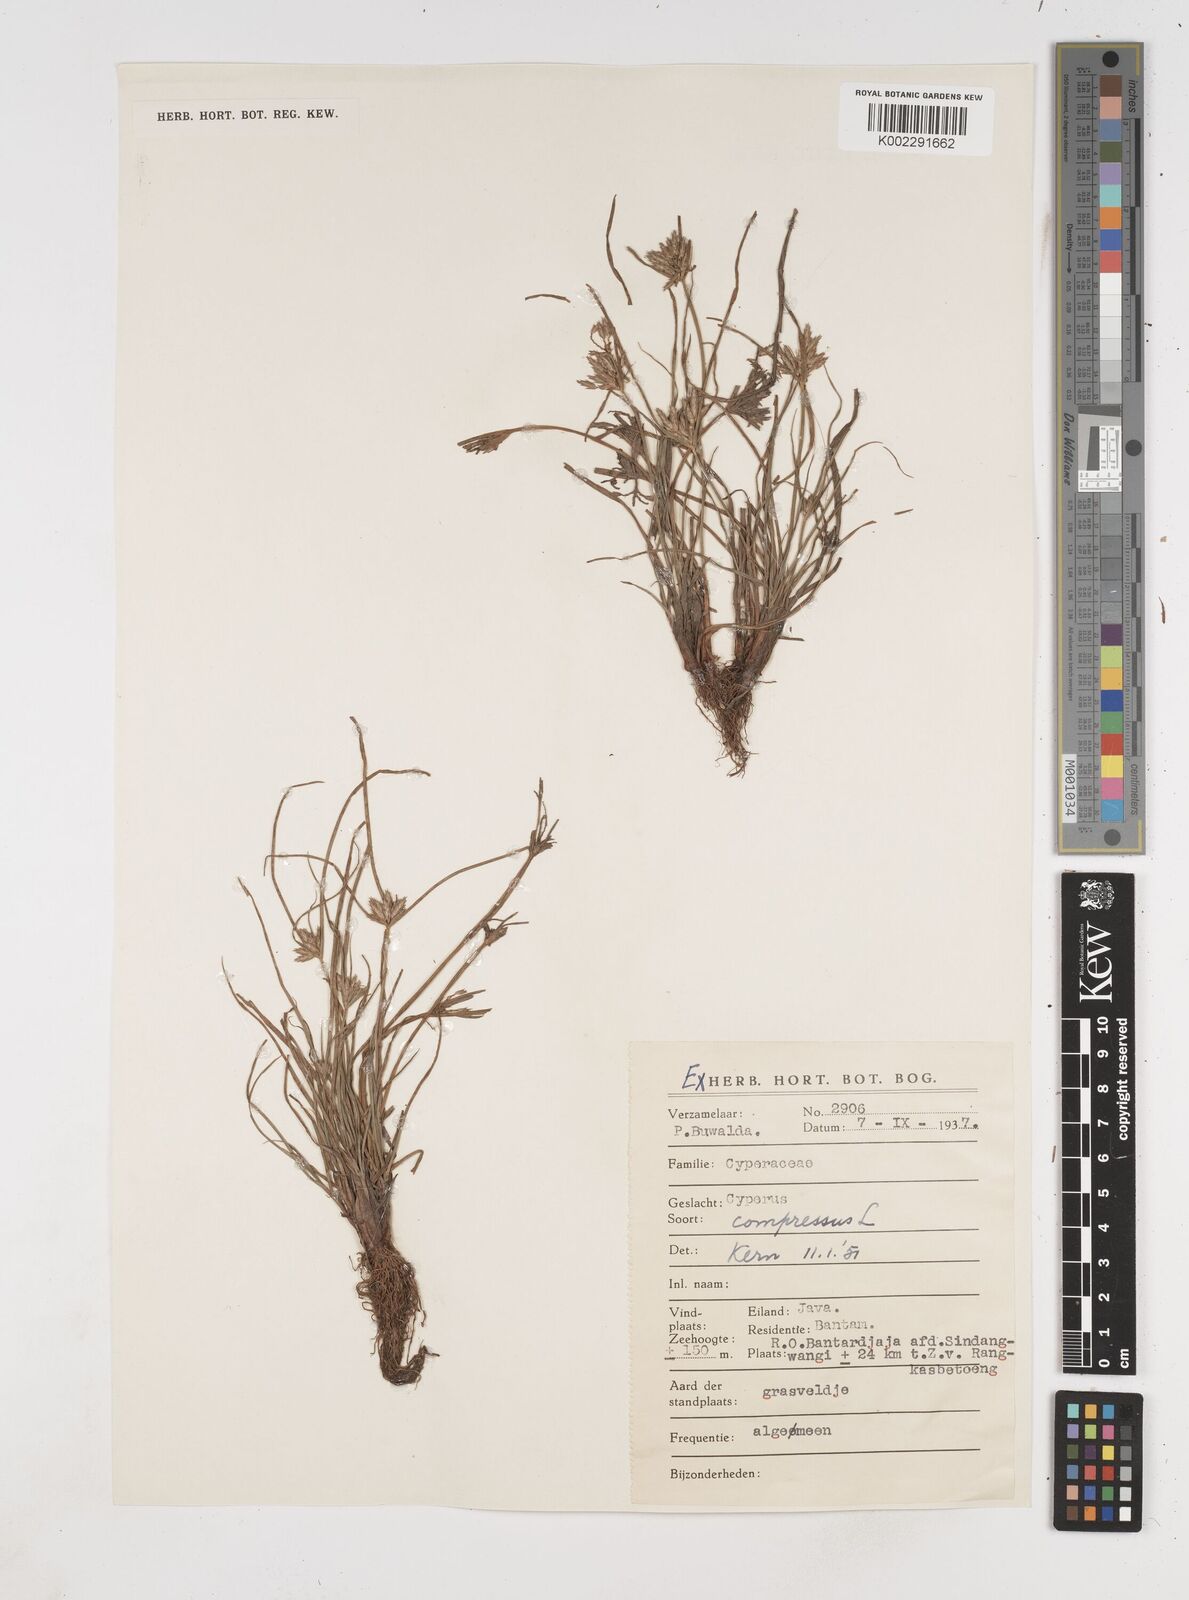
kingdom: Plantae
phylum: Tracheophyta
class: Liliopsida
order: Poales
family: Cyperaceae
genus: Cyperus
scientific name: Cyperus compressus
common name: Poorland flatsedge
